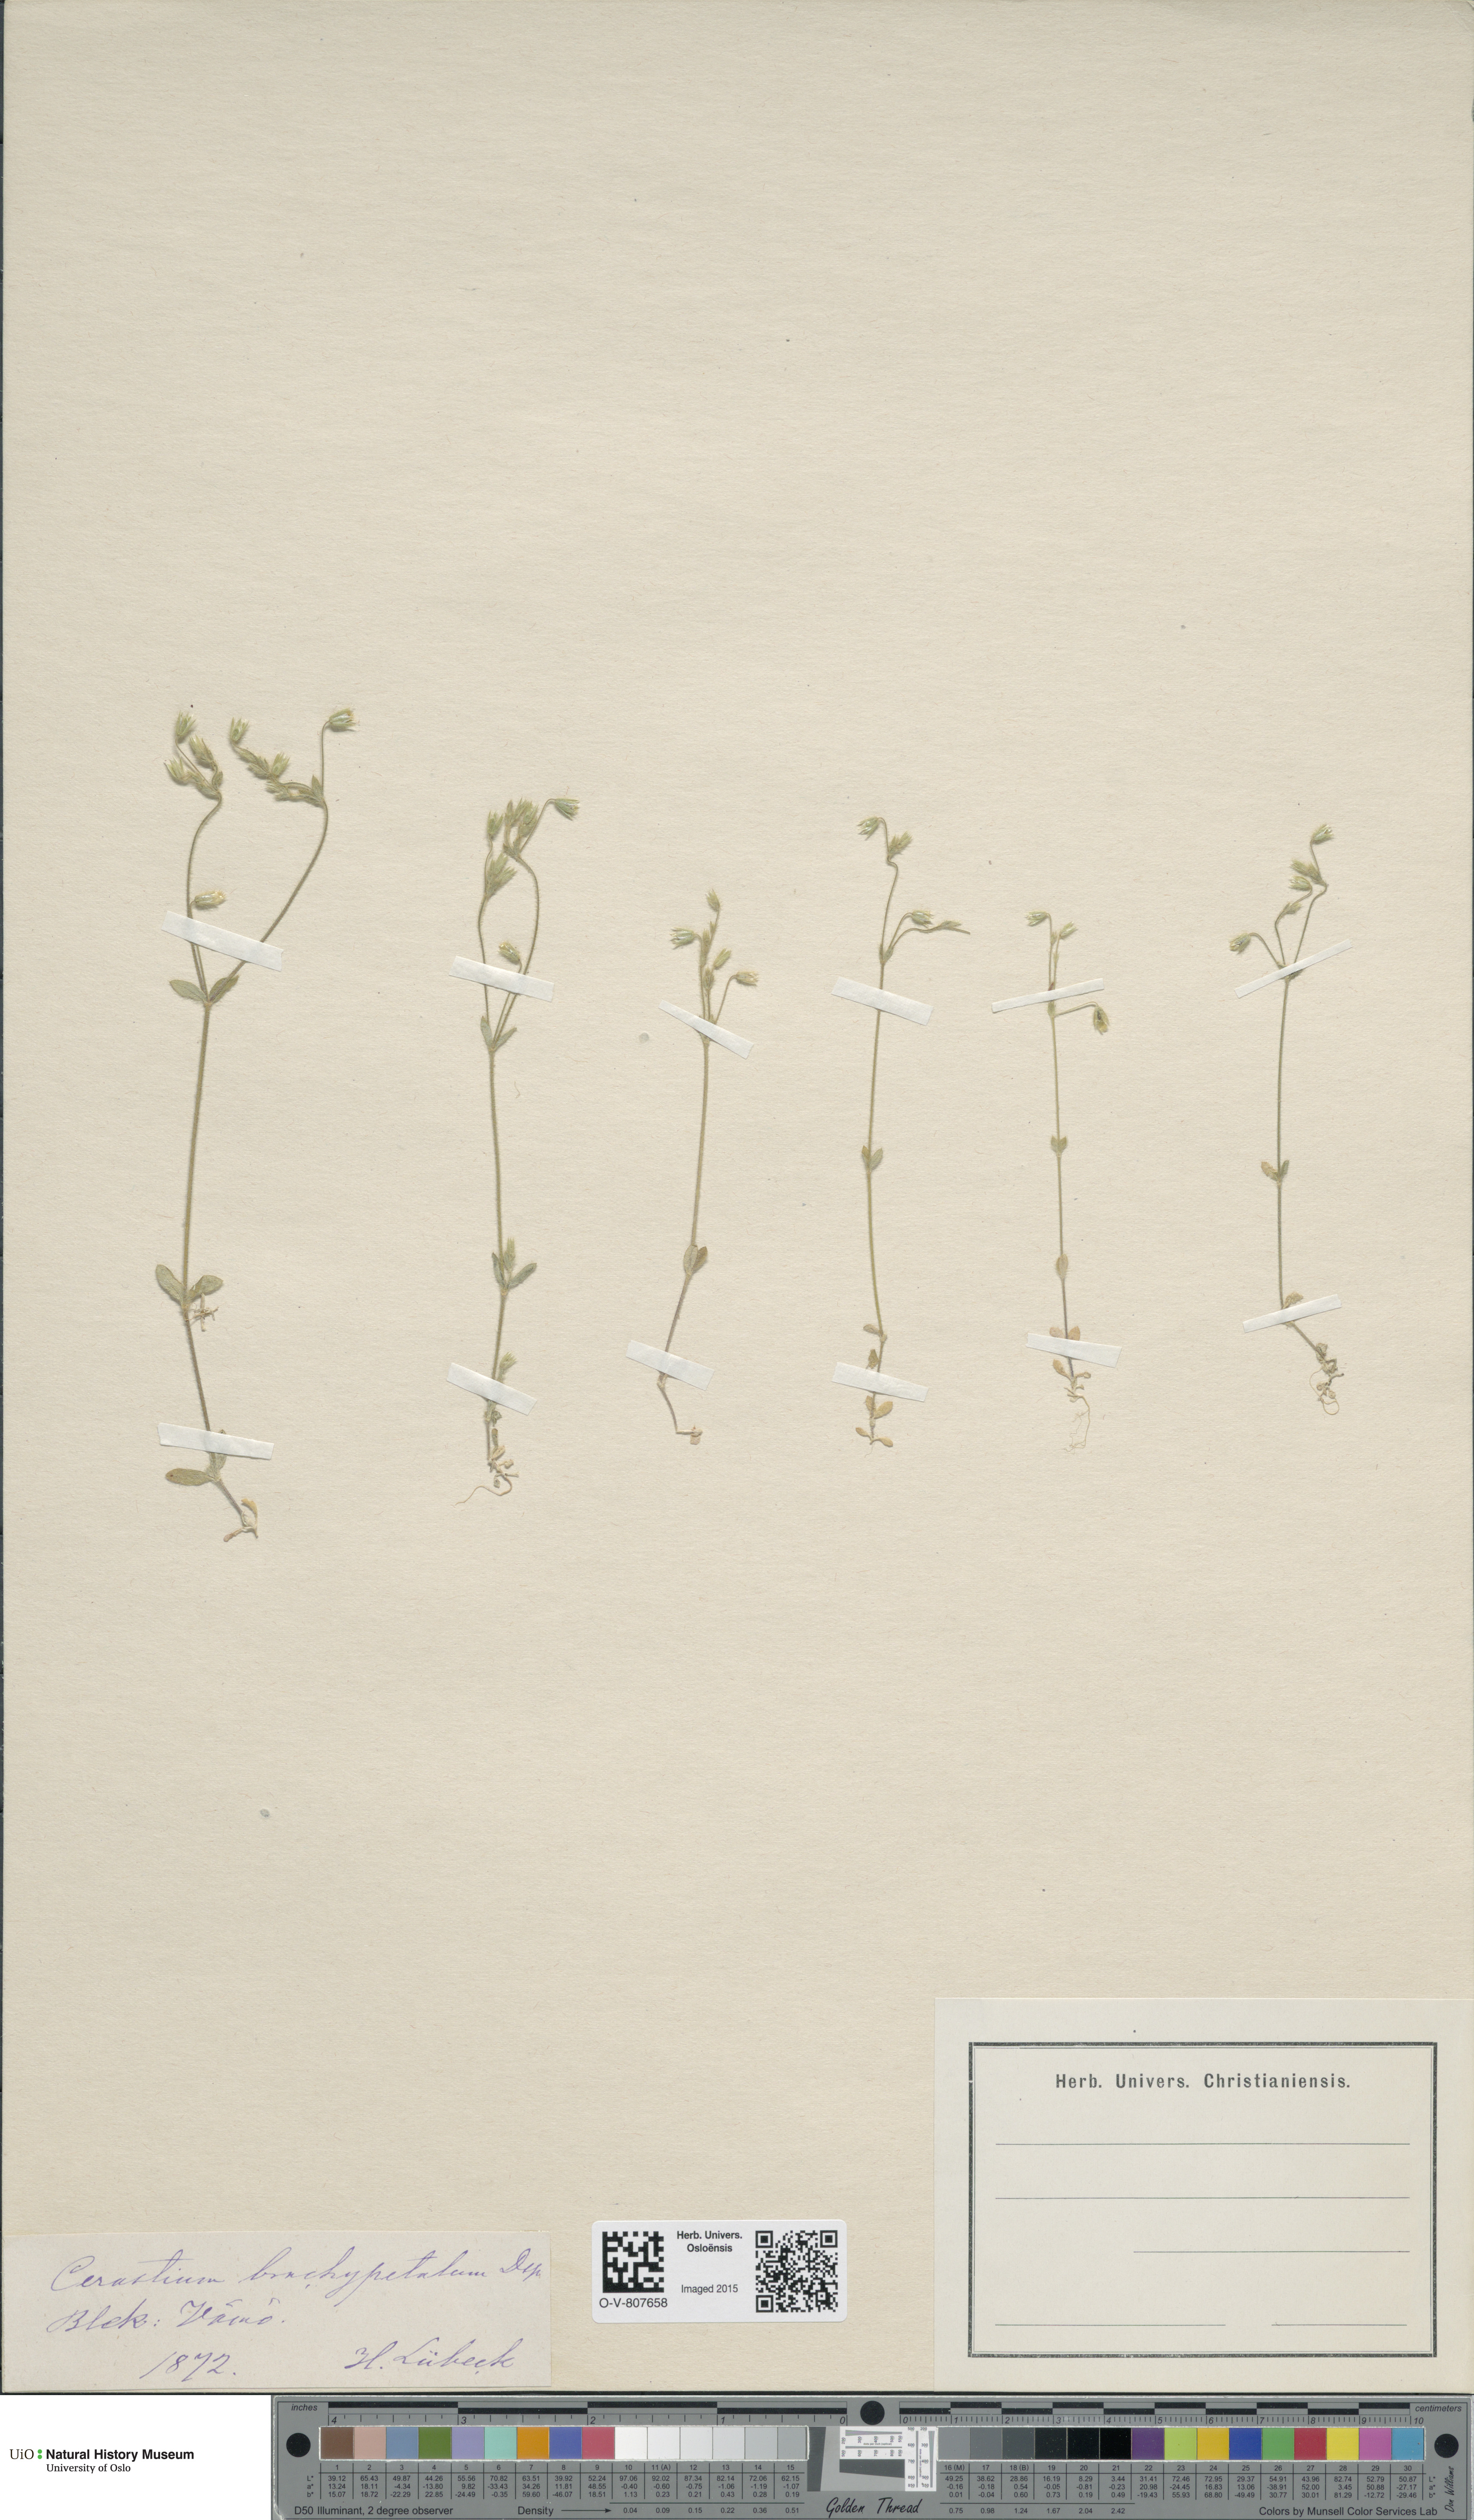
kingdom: Plantae
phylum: Tracheophyta
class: Magnoliopsida
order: Caryophyllales
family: Caryophyllaceae
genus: Cerastium
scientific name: Cerastium brachypetalum
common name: Grey mouse-ear
